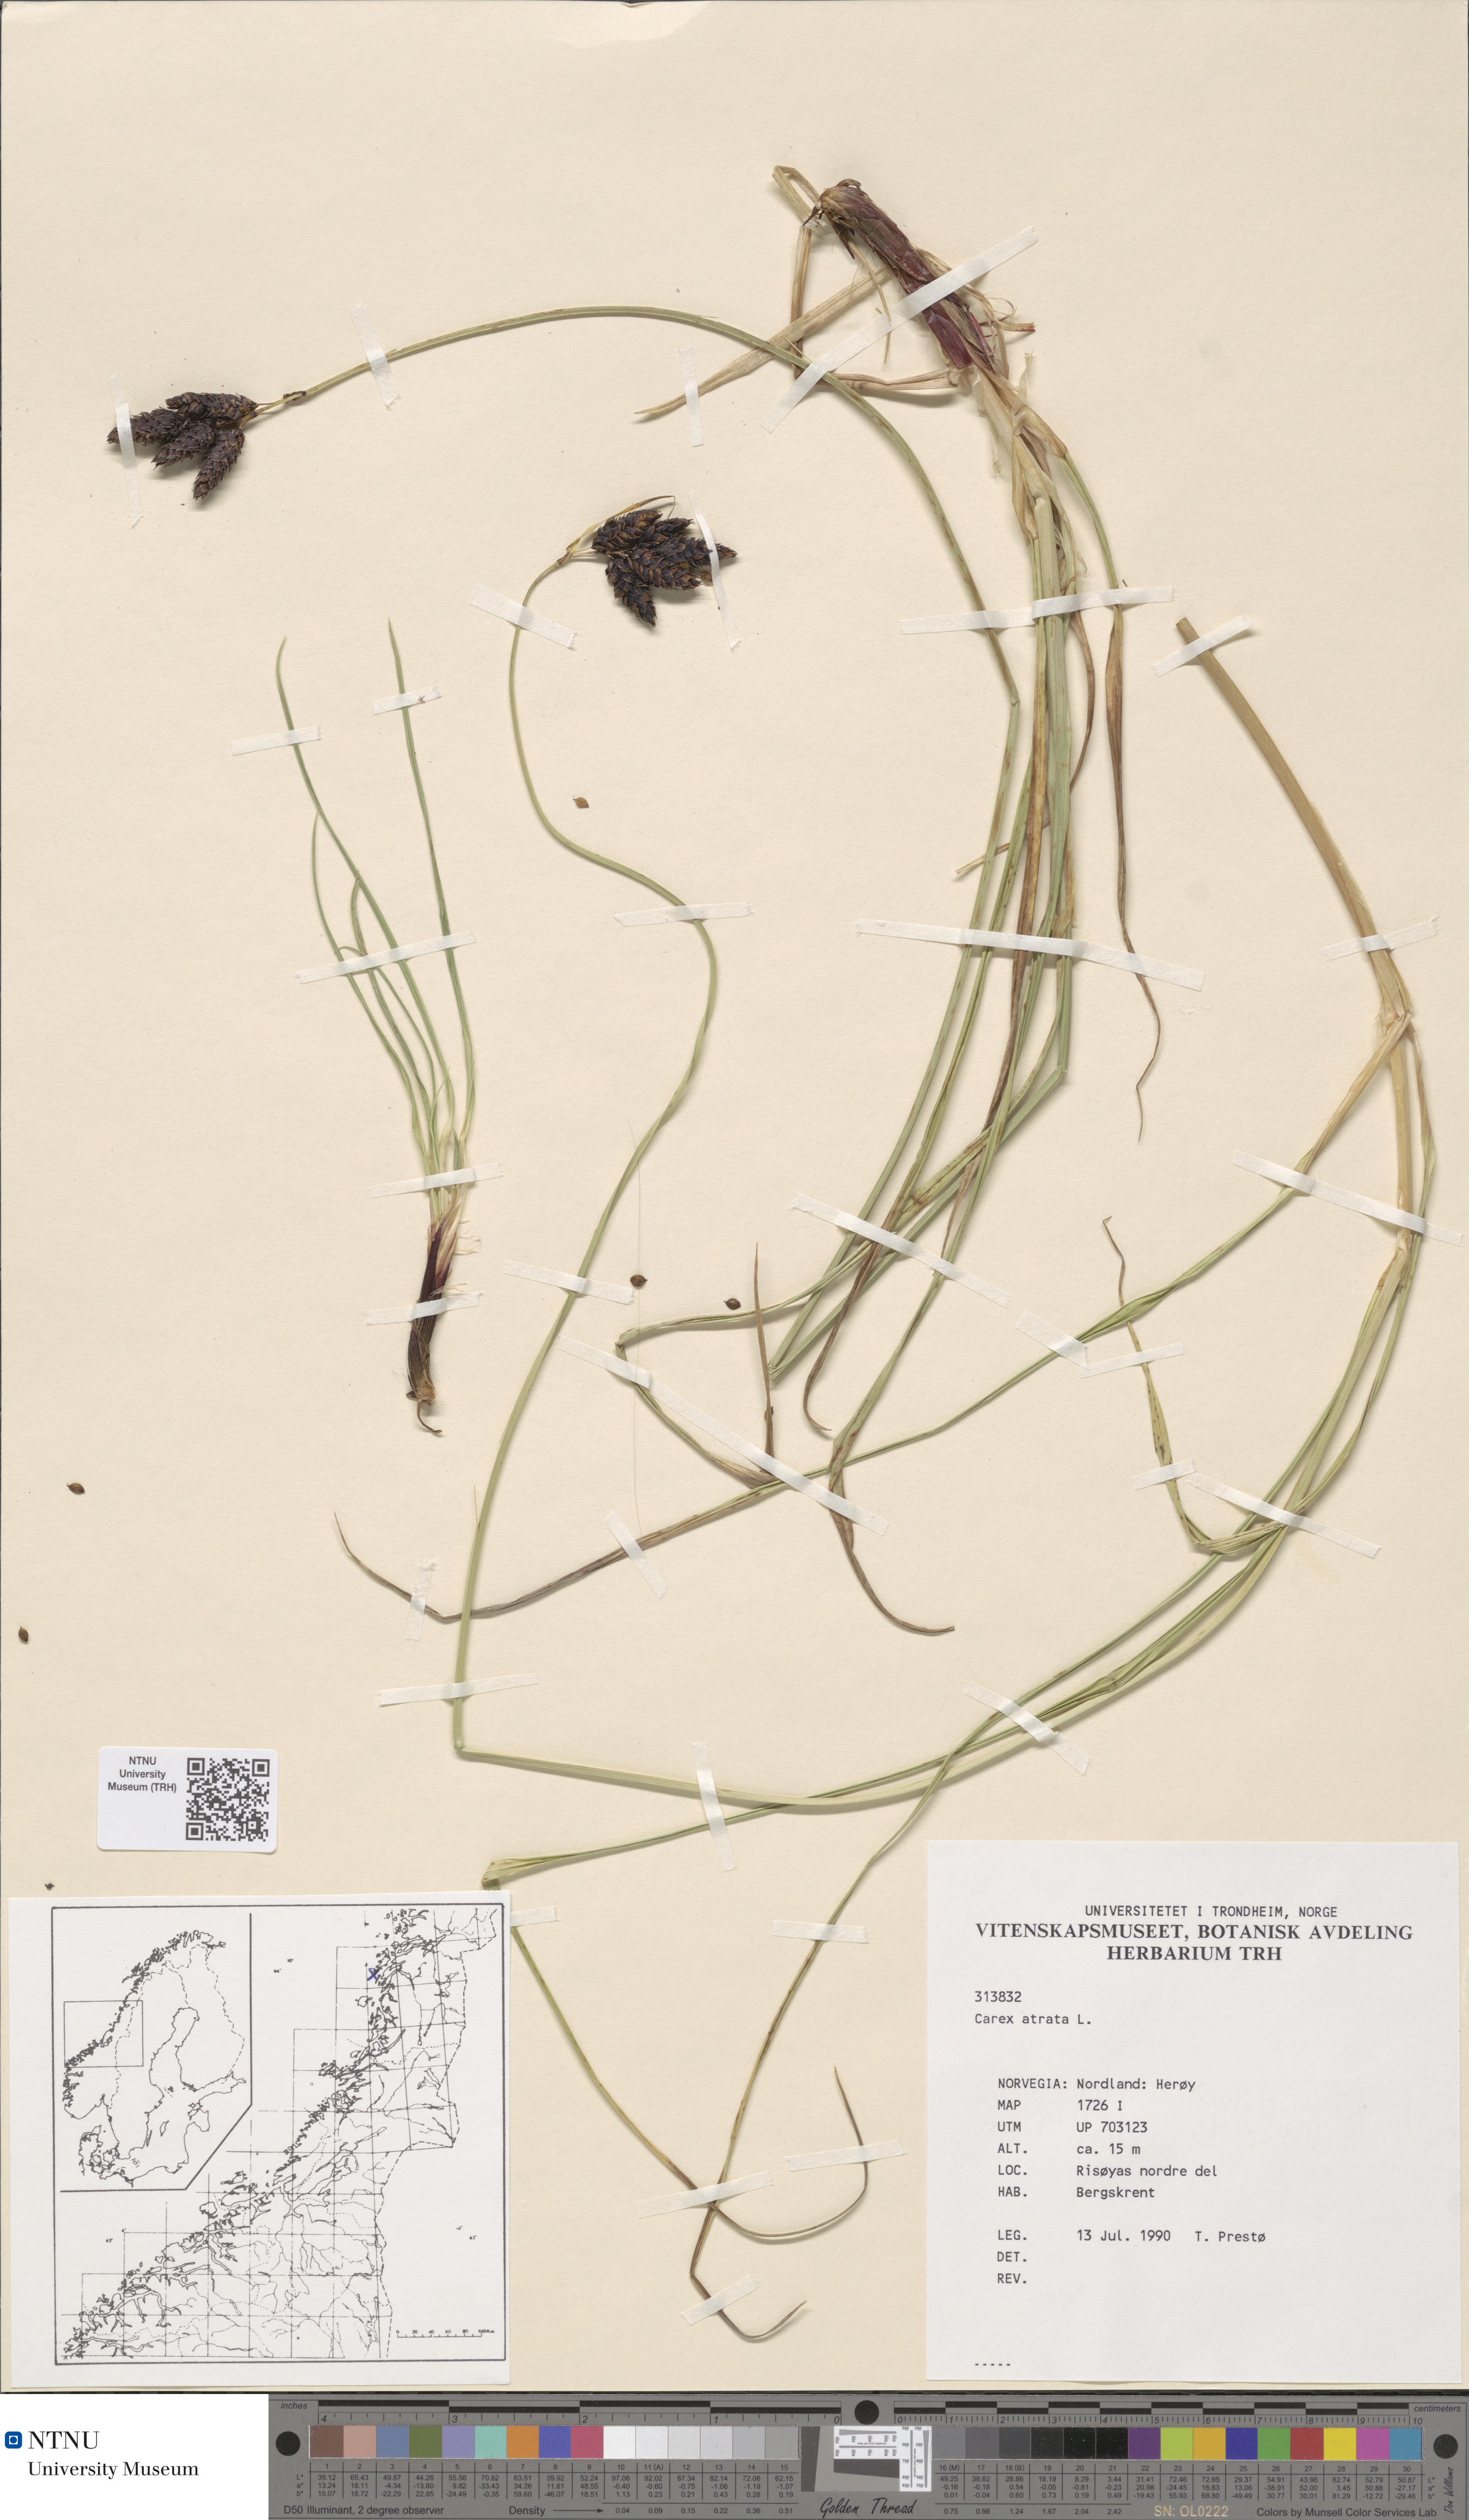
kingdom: Plantae
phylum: Tracheophyta
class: Liliopsida
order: Poales
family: Cyperaceae
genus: Carex
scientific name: Carex atrata
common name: Black alpine sedge
